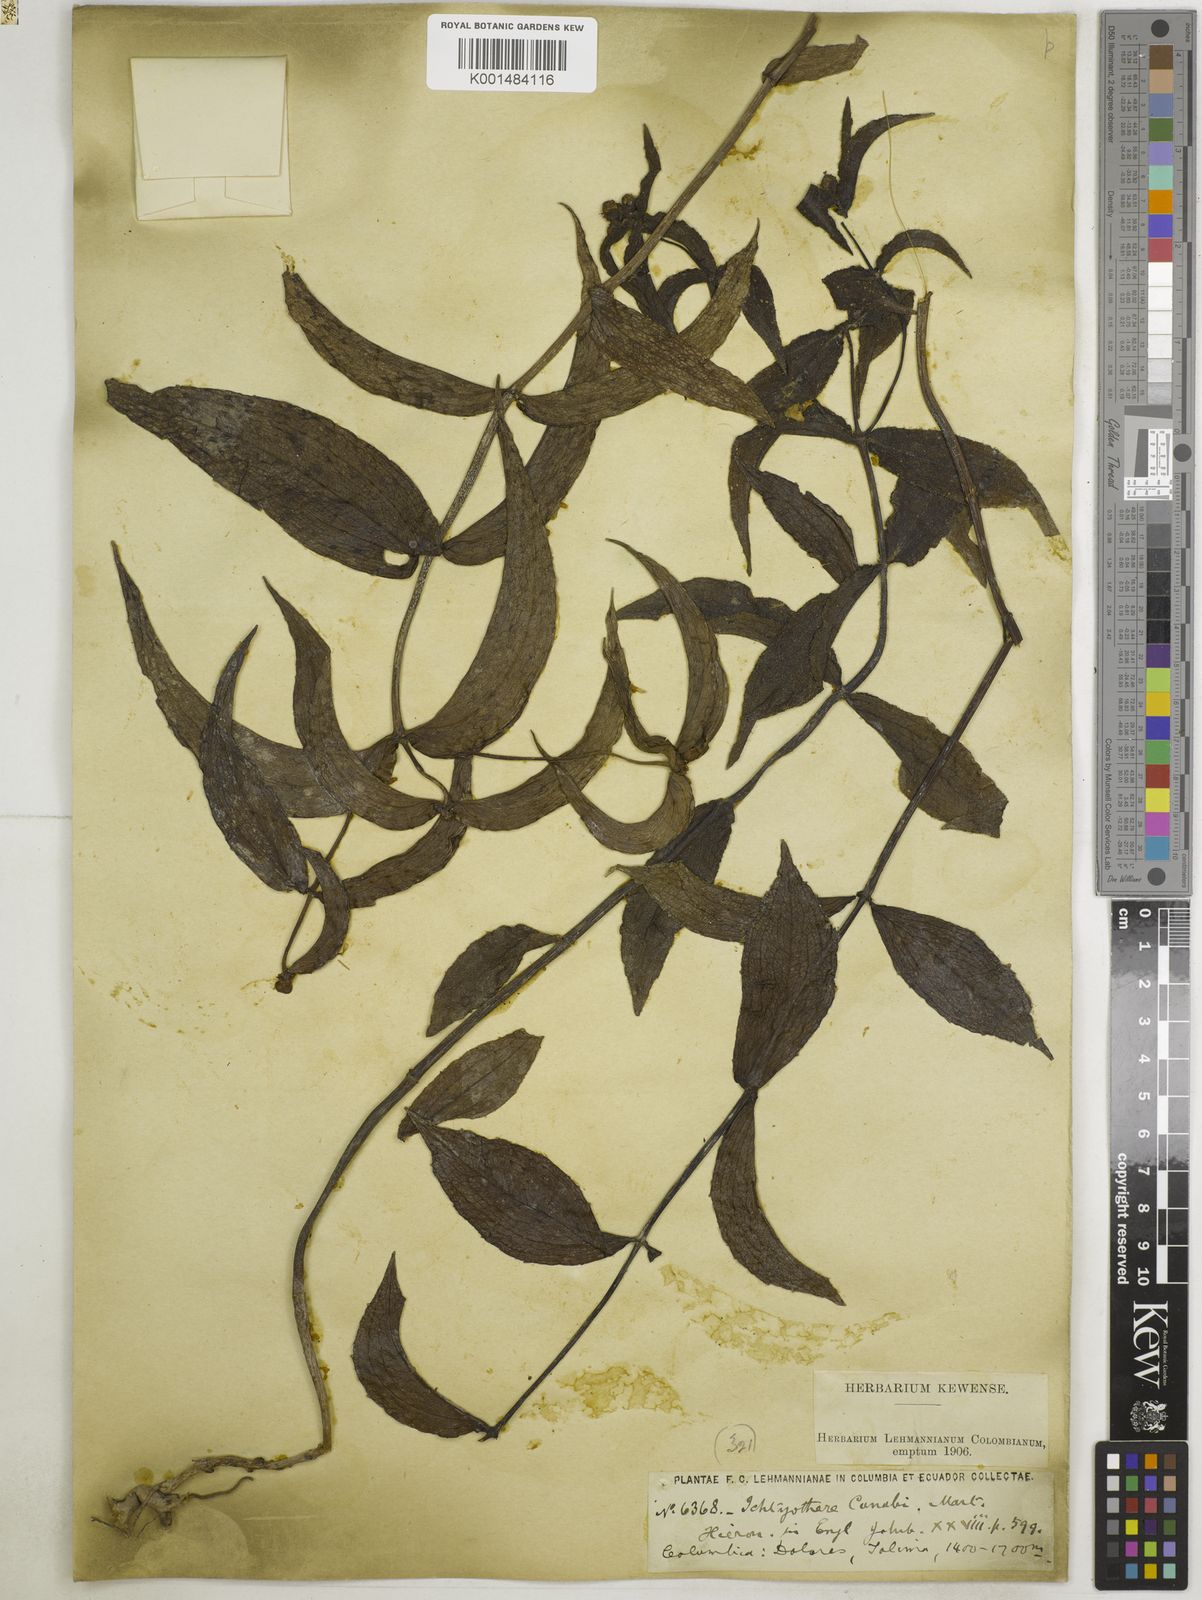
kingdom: Plantae
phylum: Tracheophyta
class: Magnoliopsida
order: Asterales
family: Asteraceae
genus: Ichthyothere
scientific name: Ichthyothere terminalis
